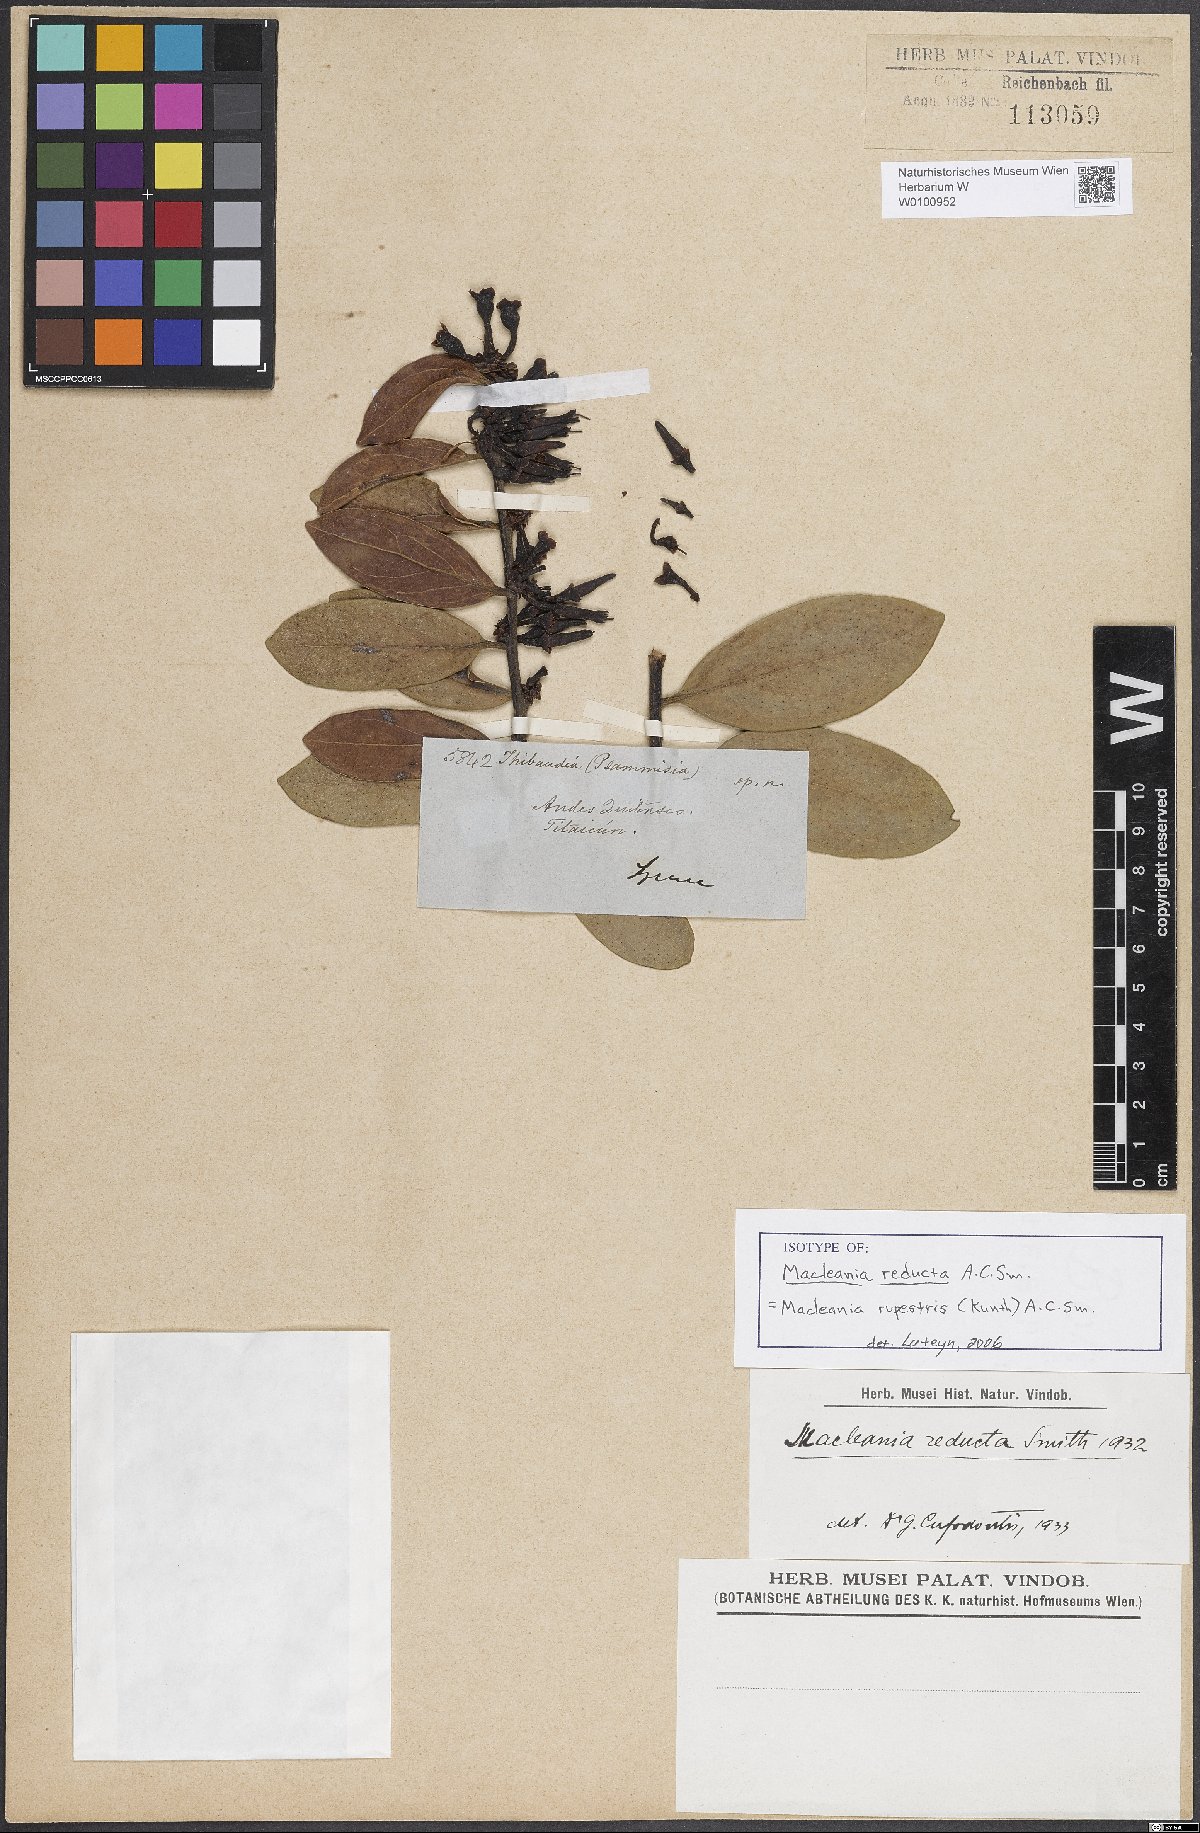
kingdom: Plantae
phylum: Tracheophyta
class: Magnoliopsida
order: Ericales
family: Ericaceae
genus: Macleania
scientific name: Macleania rupestris
